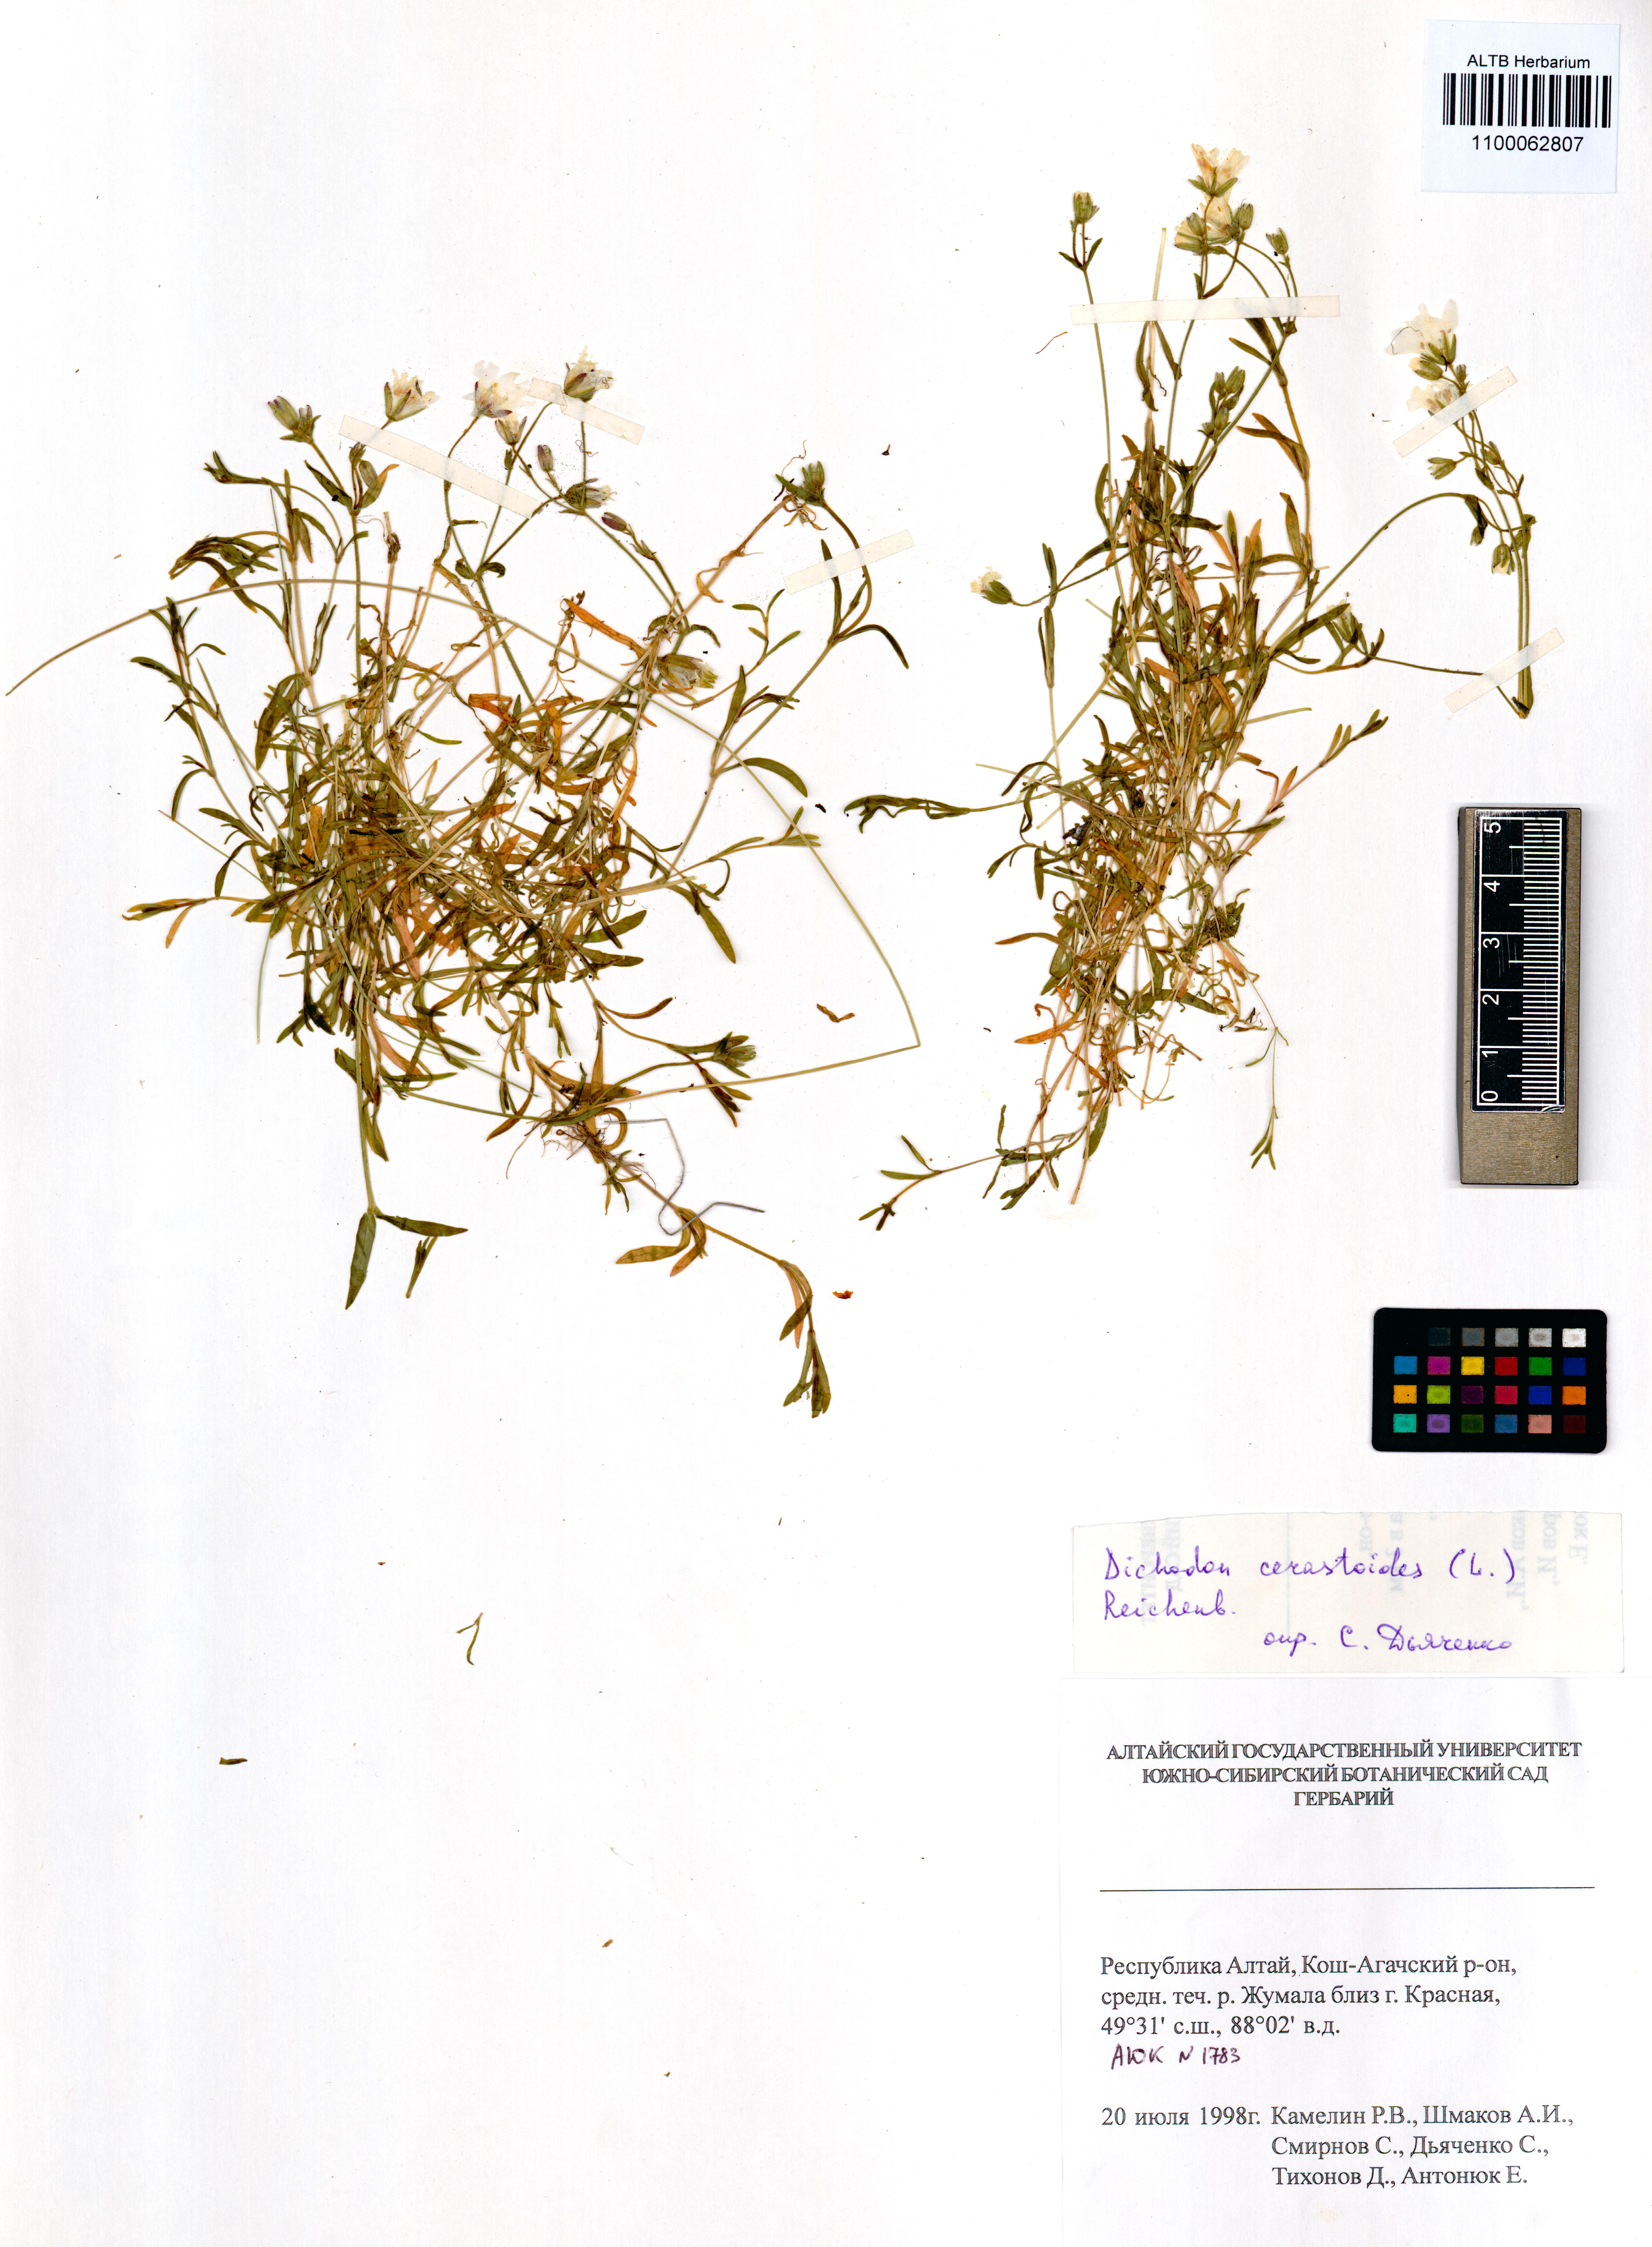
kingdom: Plantae
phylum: Tracheophyta
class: Magnoliopsida
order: Caryophyllales
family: Caryophyllaceae
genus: Dichodon
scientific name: Dichodon cerastoides
